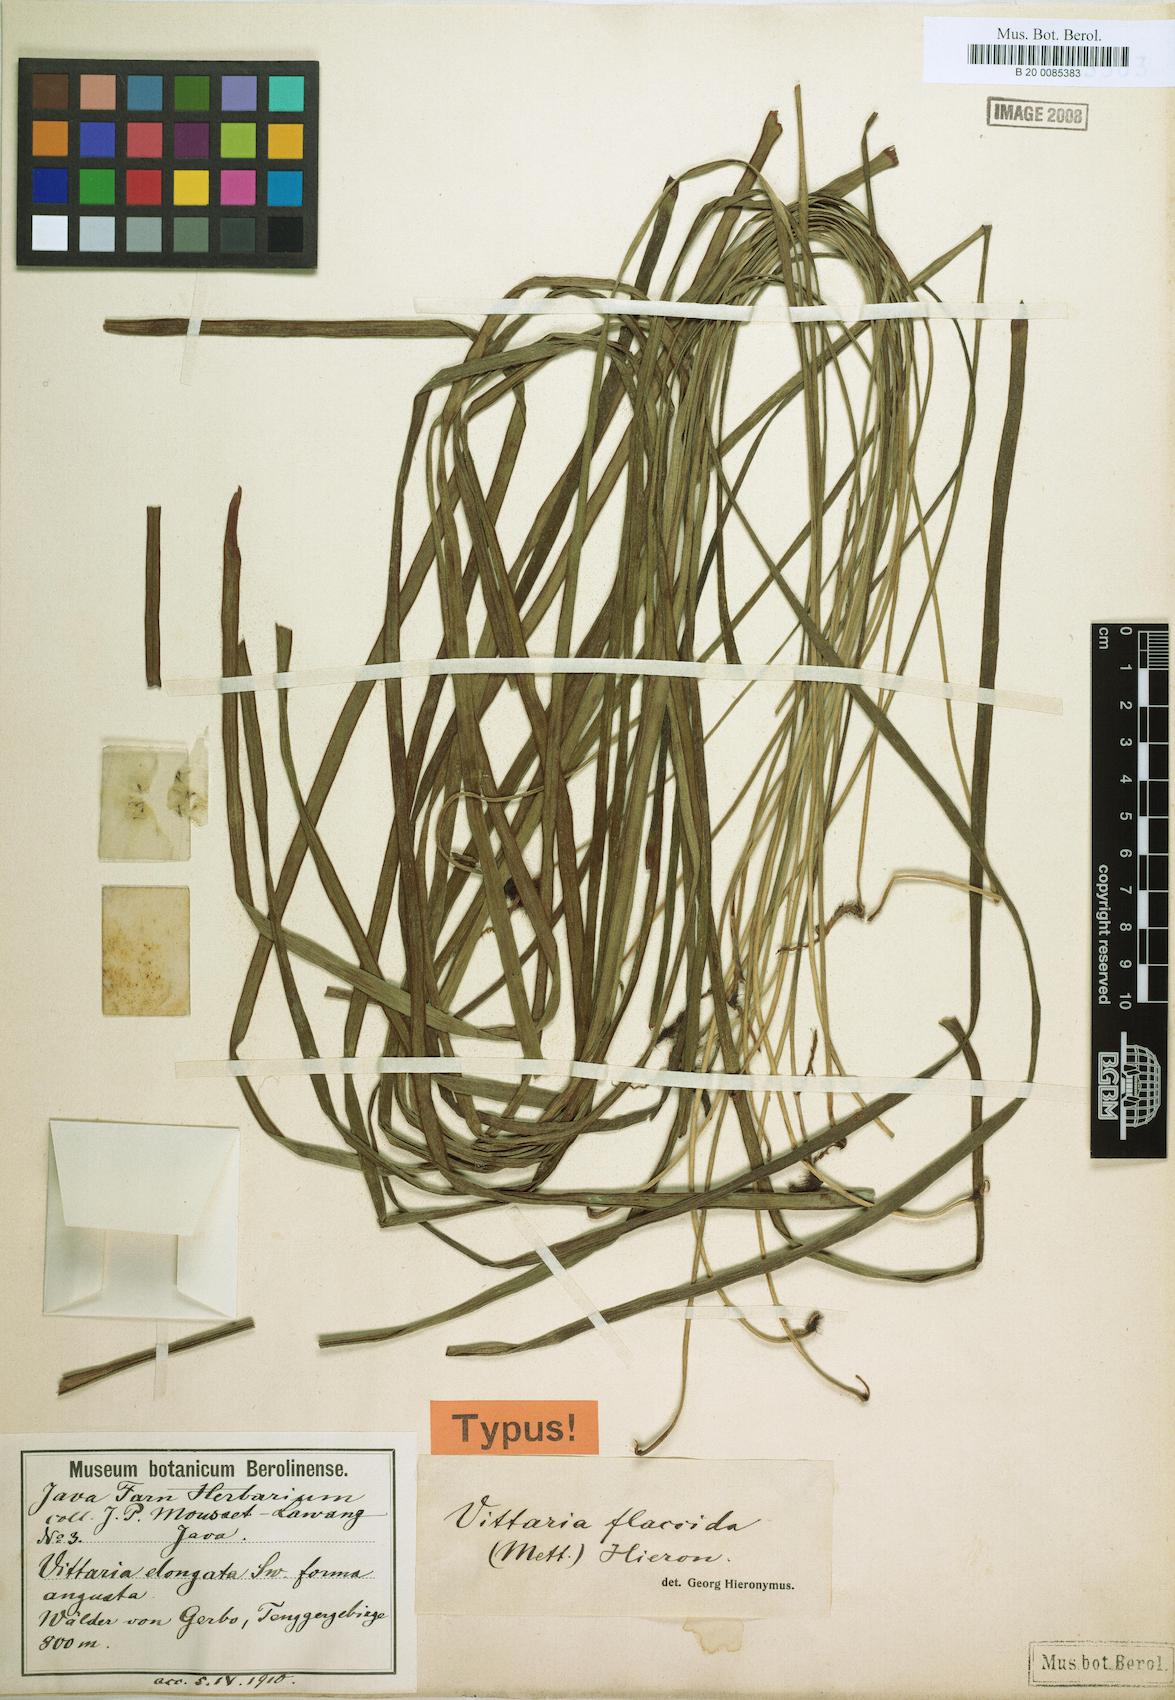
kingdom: Plantae
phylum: Tracheophyta
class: Polypodiopsida
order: Polypodiales
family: Pteridaceae
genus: Haplopteris
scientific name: Haplopteris elongata
